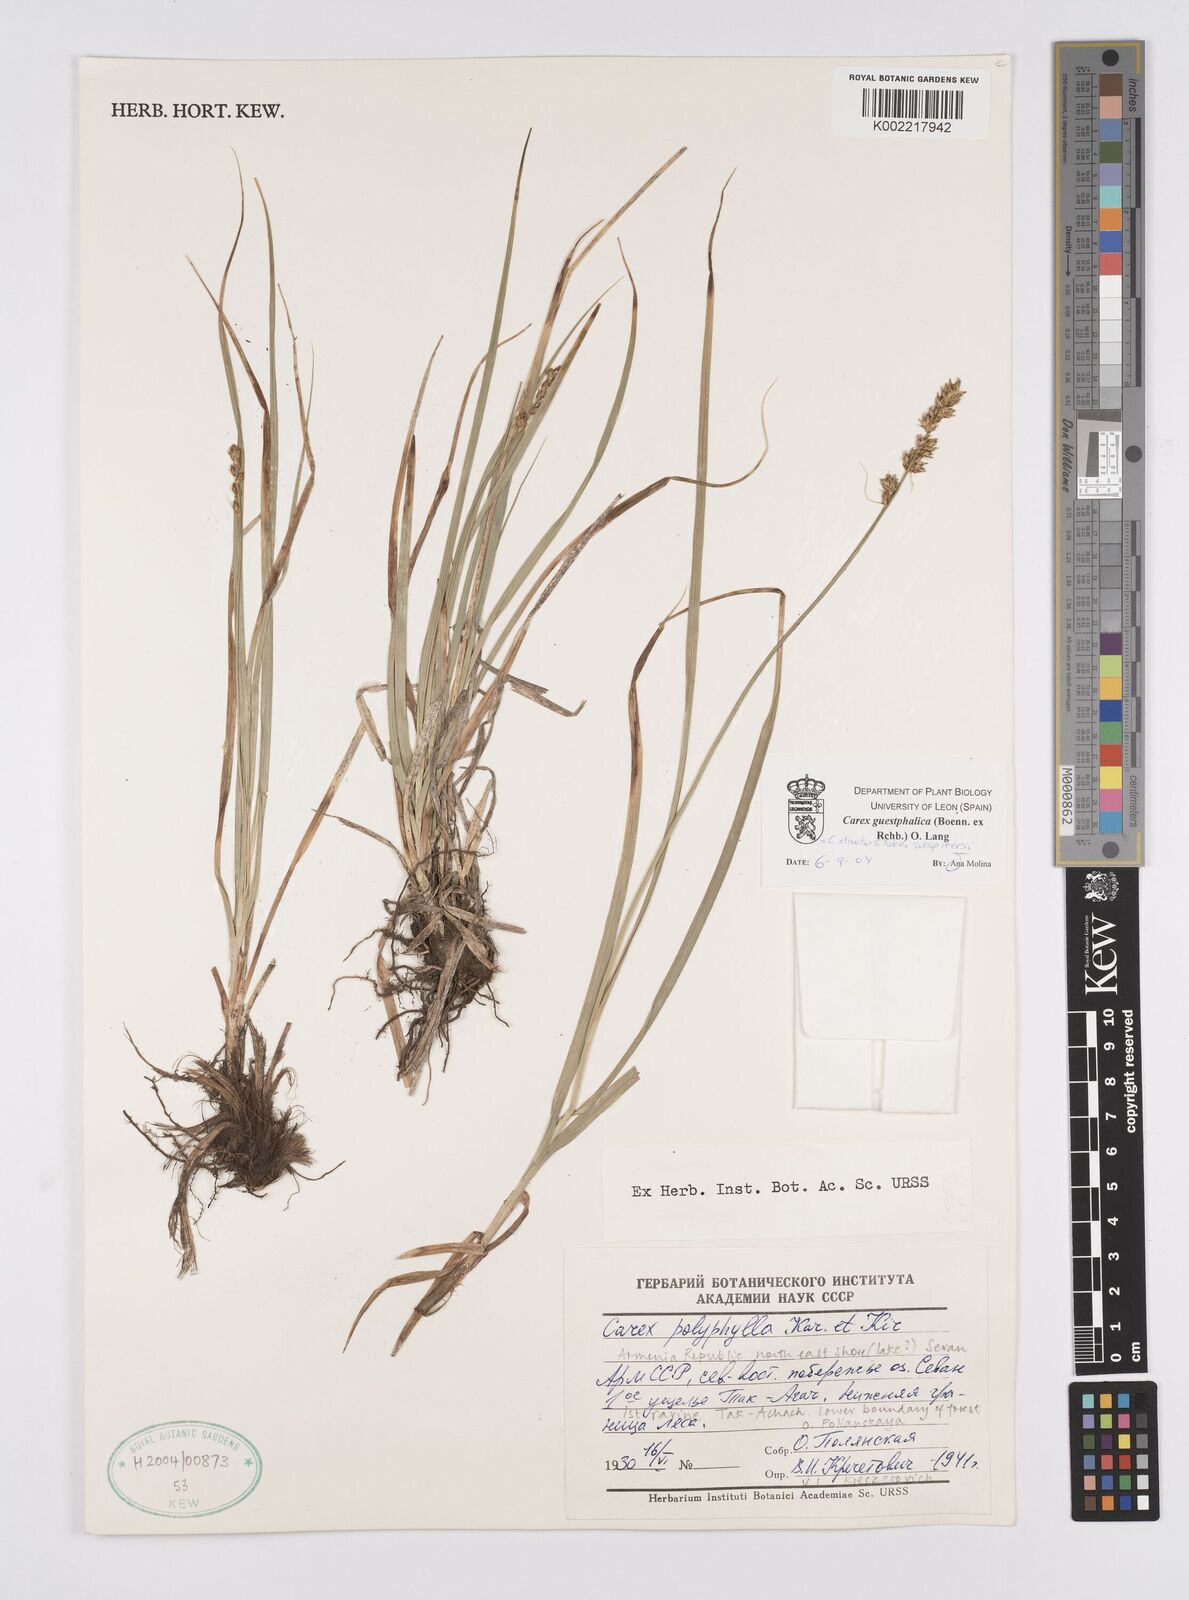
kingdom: Plantae
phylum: Tracheophyta
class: Liliopsida
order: Poales
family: Cyperaceae
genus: Carex
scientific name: Carex divulsa
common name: Grassland sedge
